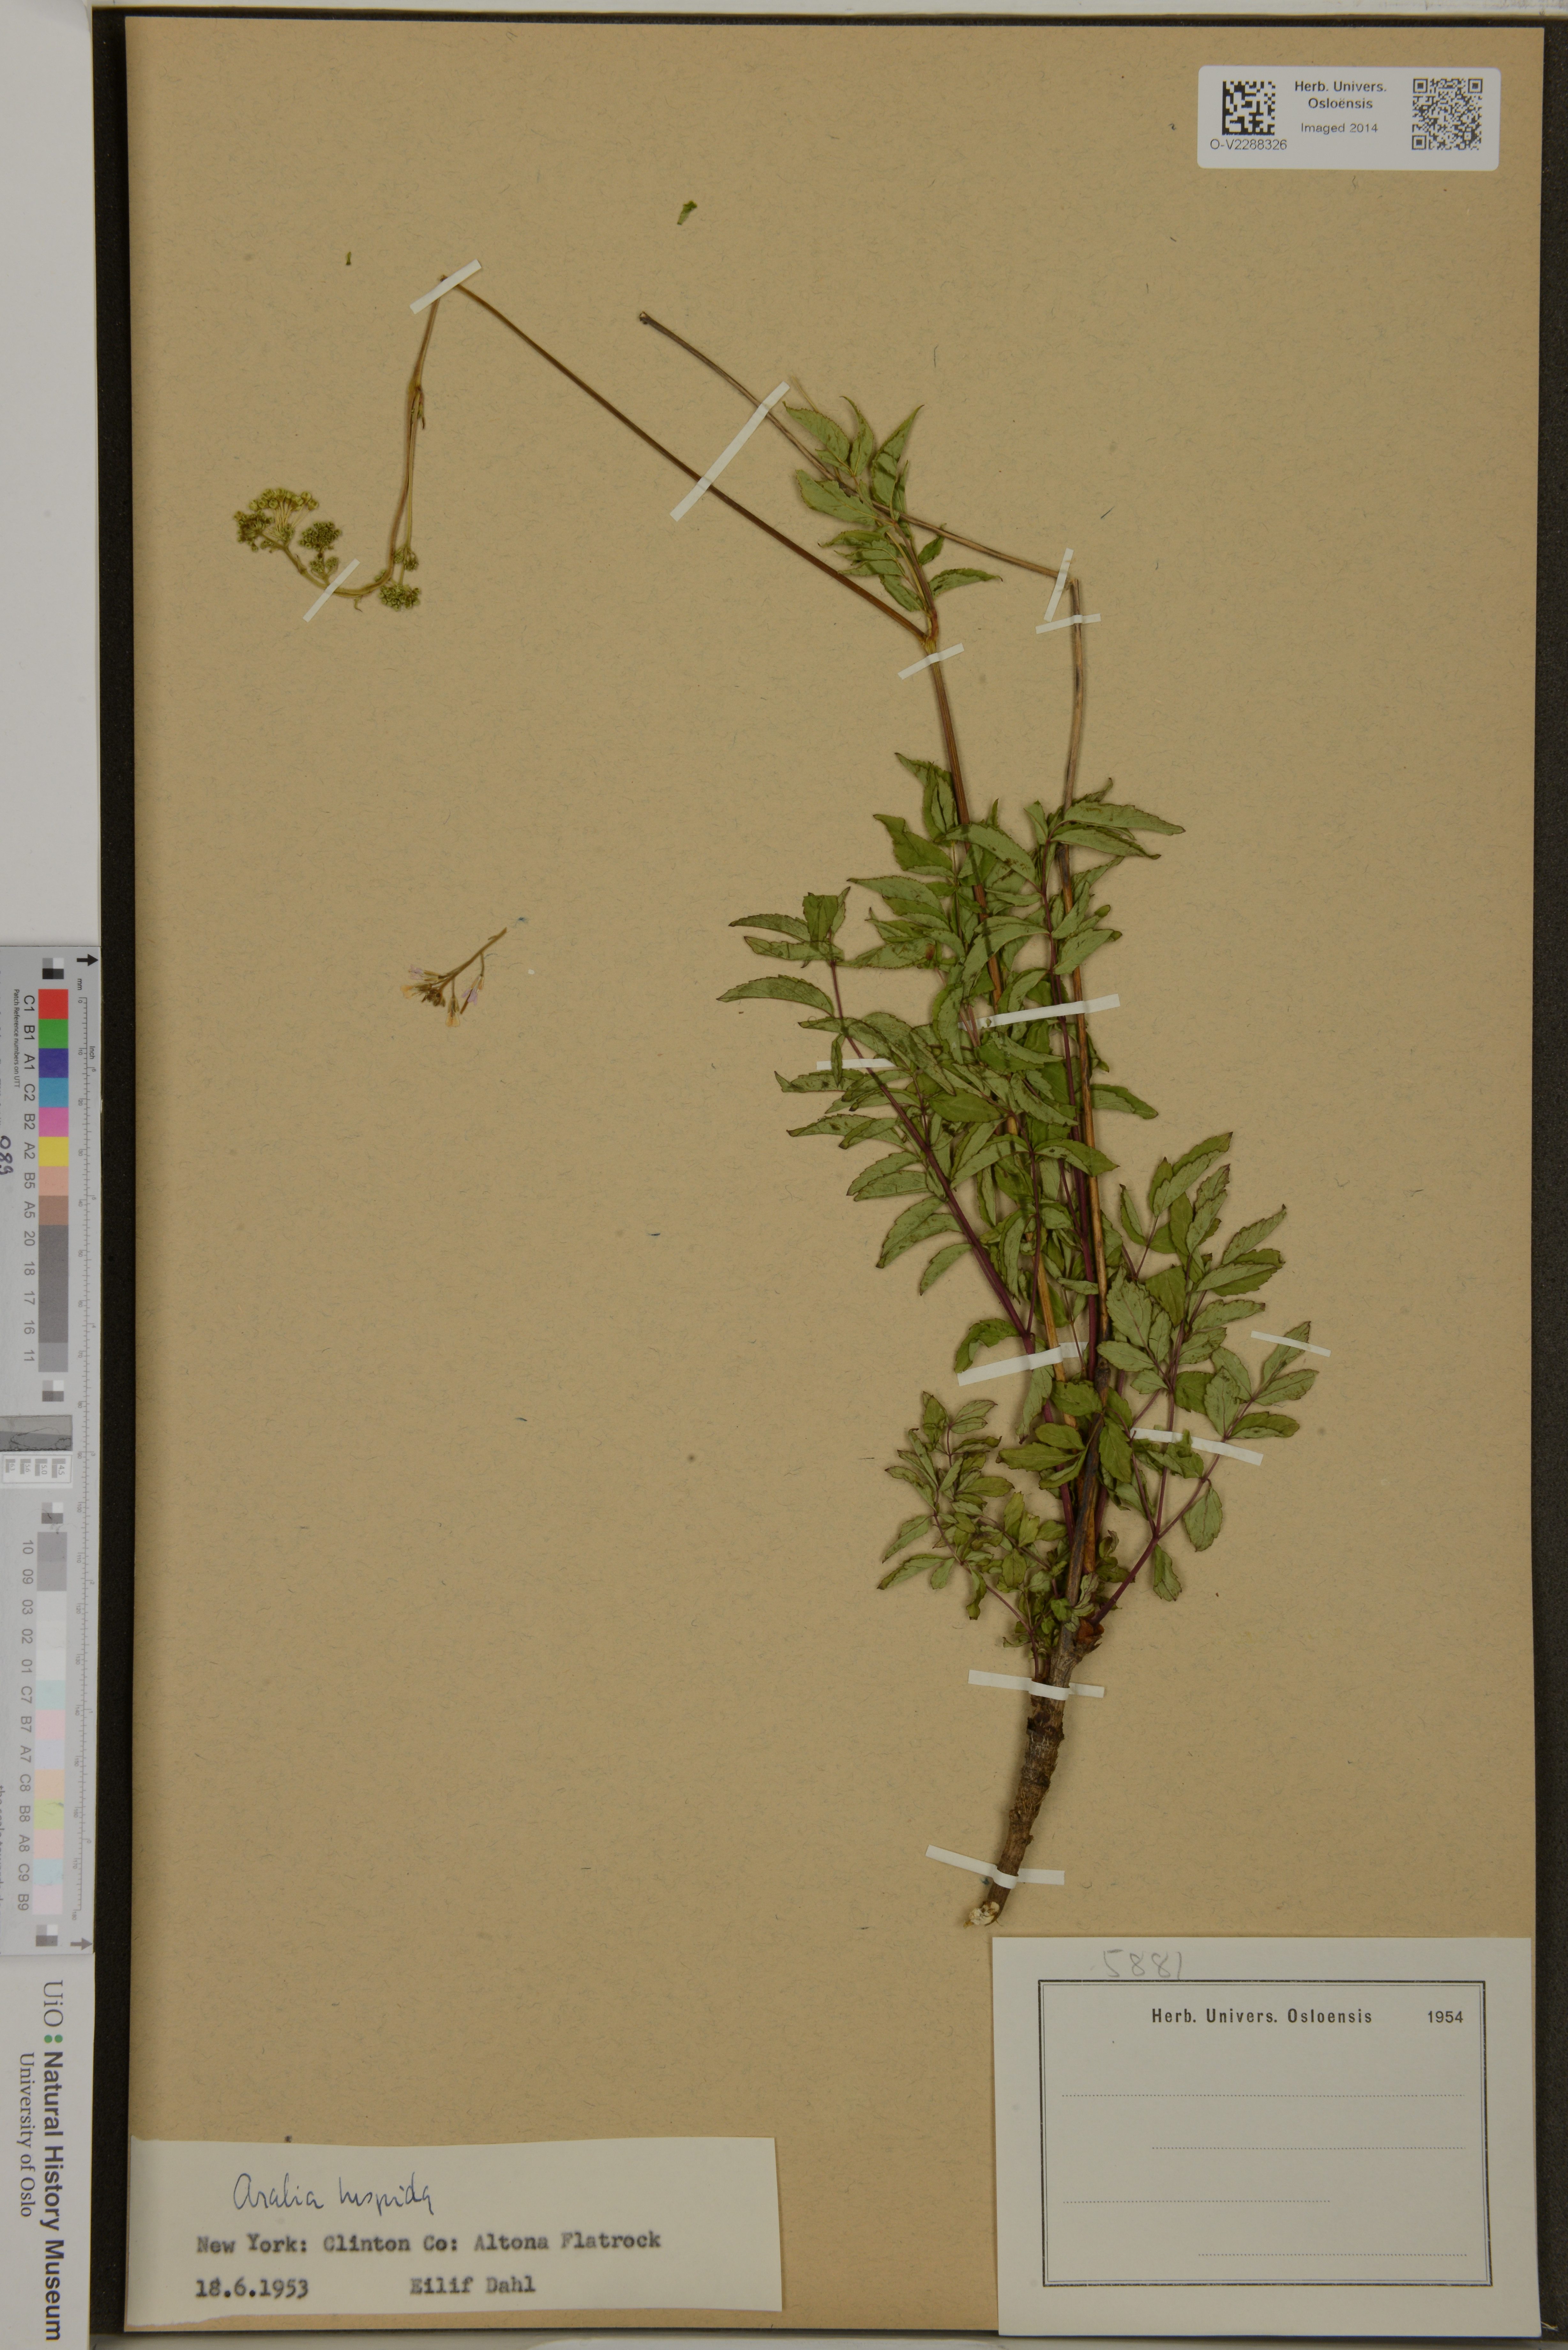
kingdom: Plantae
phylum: Tracheophyta
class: Magnoliopsida
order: Apiales
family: Araliaceae
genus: Aralia
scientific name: Aralia hispida
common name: Bristly sarsaparilla
